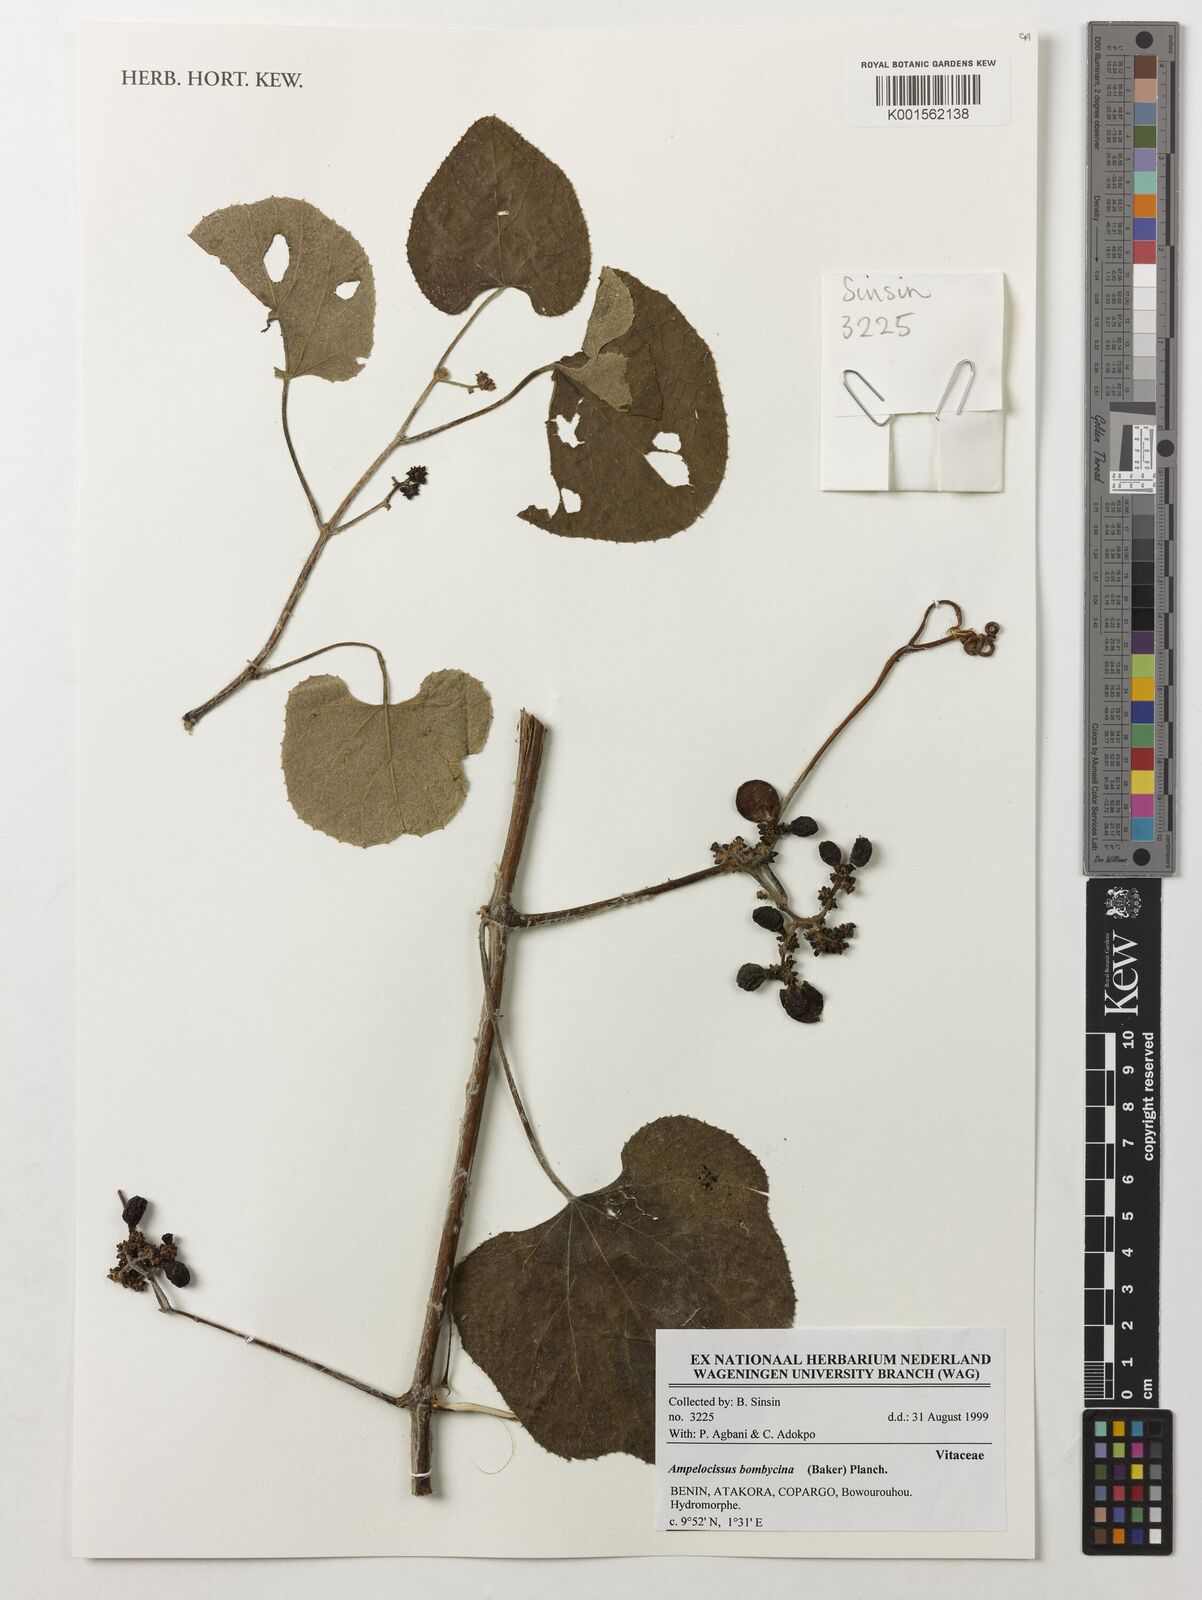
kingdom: Plantae
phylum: Tracheophyta
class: Magnoliopsida
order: Vitales
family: Vitaceae
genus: Ampelocissus
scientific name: Ampelocissus bombycina
